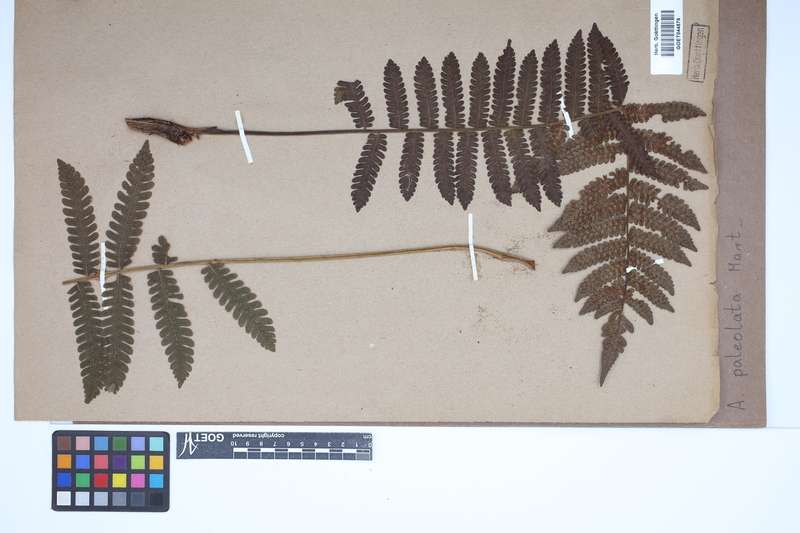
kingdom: Plantae
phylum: Tracheophyta
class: Polypodiopsida
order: Cyatheales
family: Cyatheaceae
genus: Cyathea
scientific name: Cyathea phalerata
